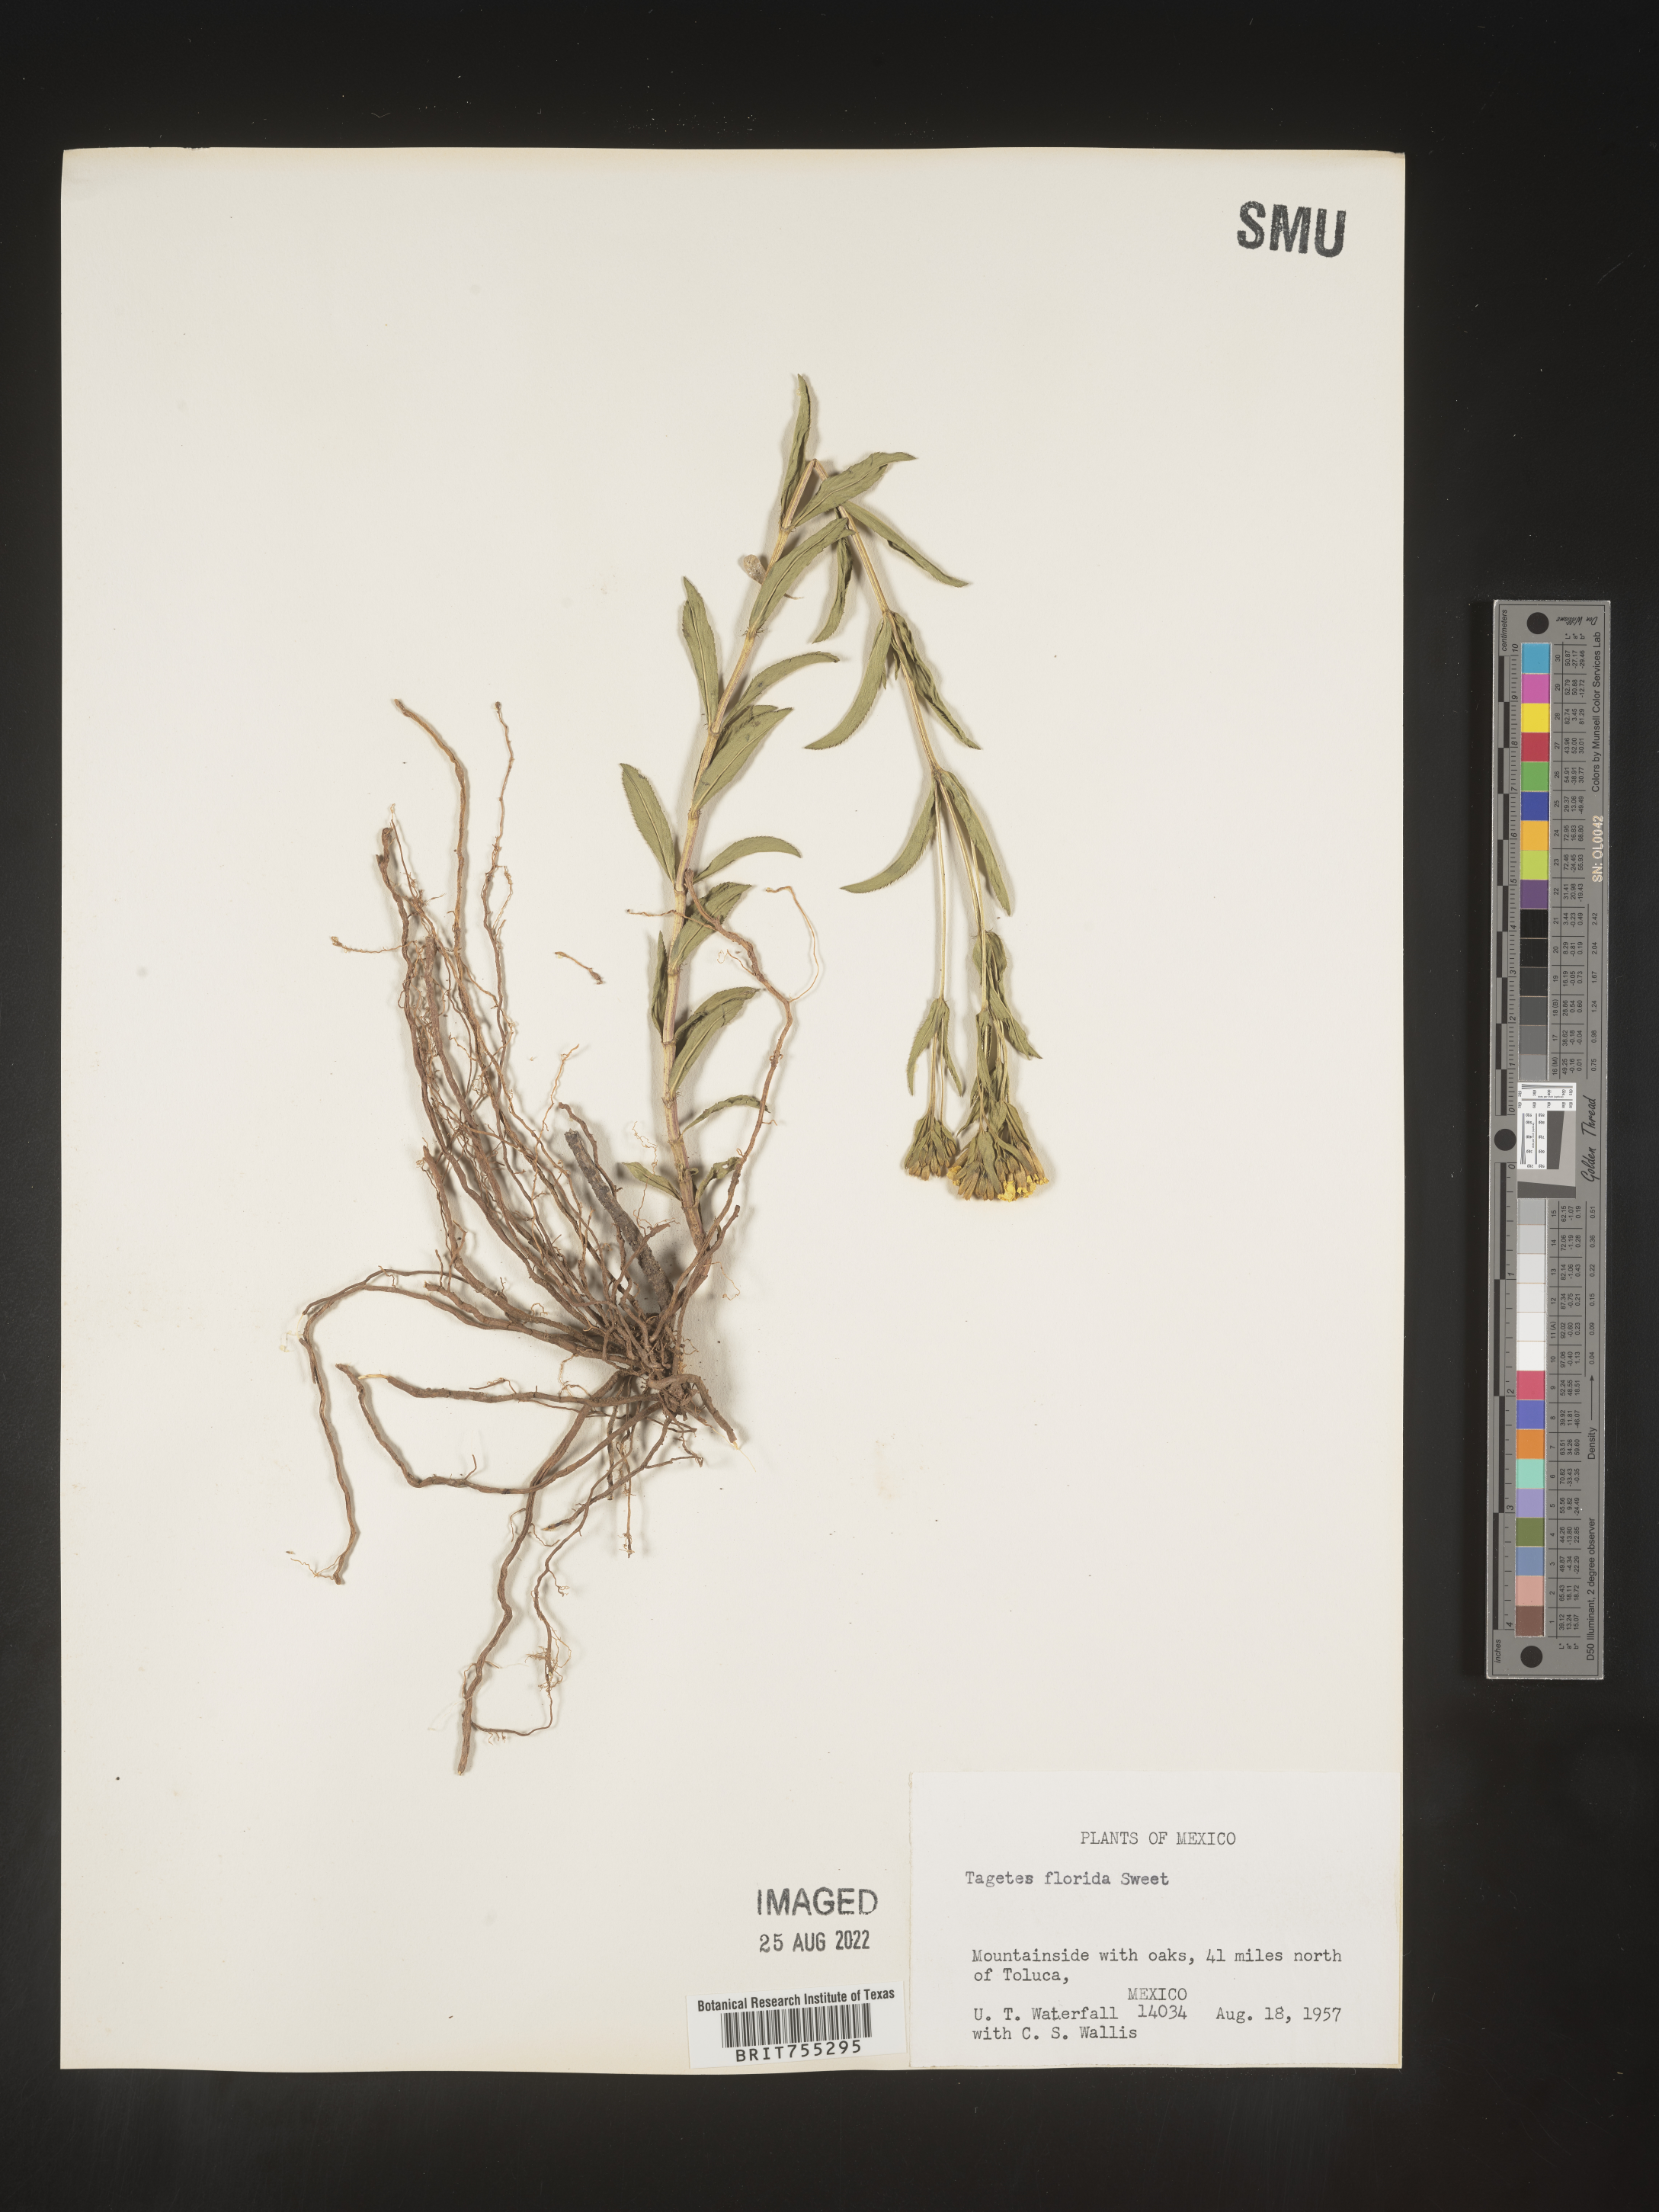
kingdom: Plantae
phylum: Tracheophyta
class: Magnoliopsida
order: Asterales
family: Asteraceae
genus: Tagetes
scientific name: Tagetes
